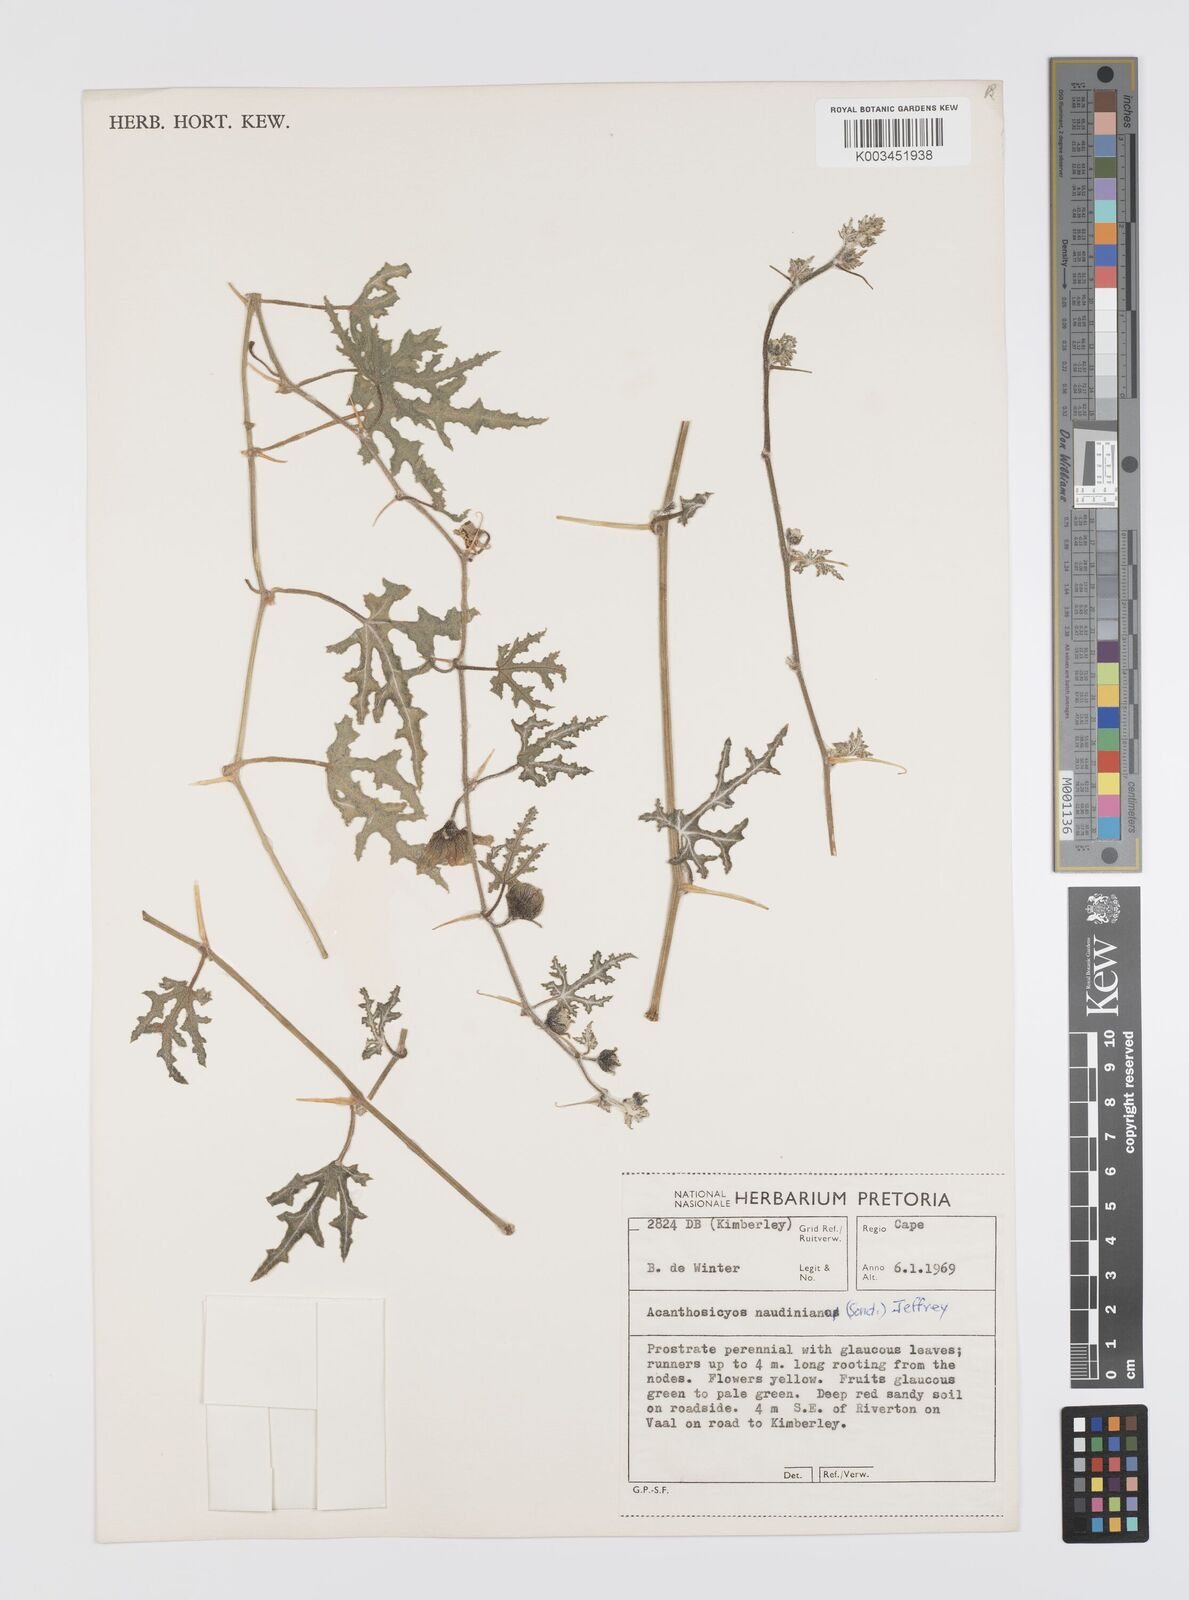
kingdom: Plantae
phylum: Tracheophyta
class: Magnoliopsida
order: Cucurbitales
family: Cucurbitaceae
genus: Citrullus
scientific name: Citrullus naudinianus
